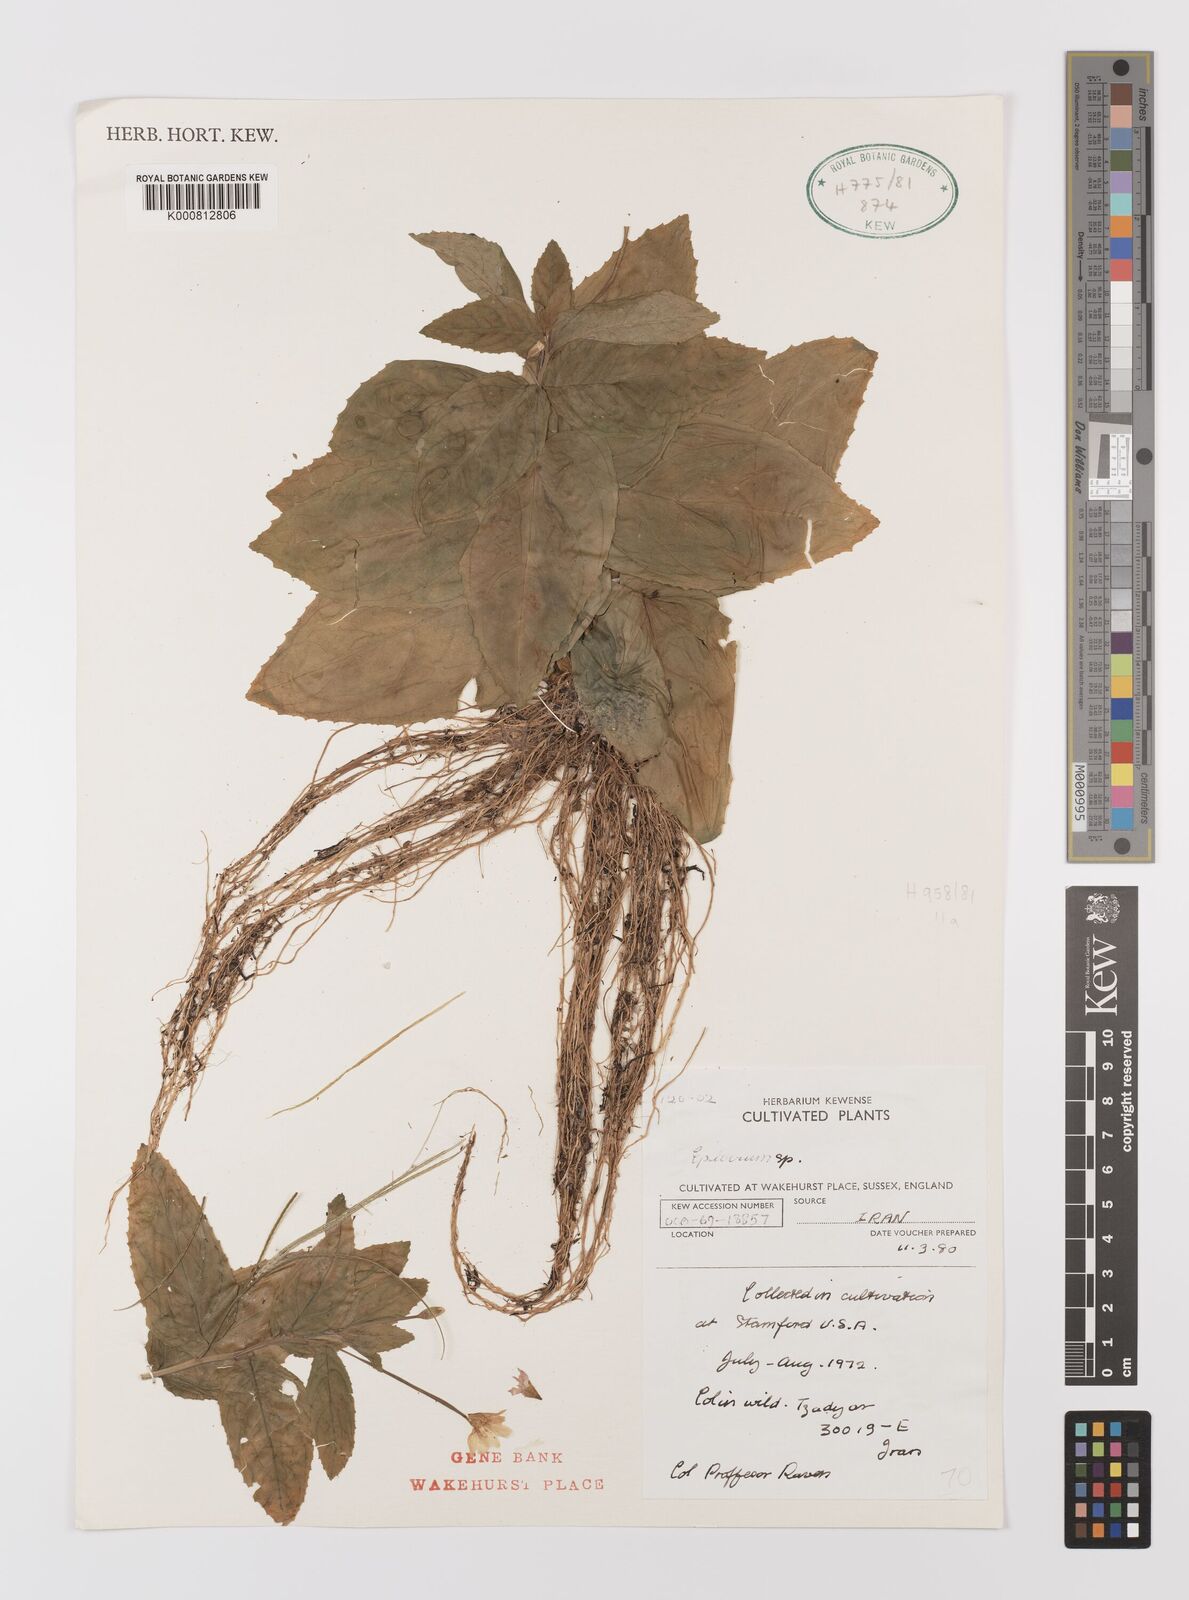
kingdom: Plantae
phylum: Tracheophyta
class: Magnoliopsida
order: Myrtales
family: Onagraceae
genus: Epilobium
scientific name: Epilobium montanum
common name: Broad-leaved willowherb
